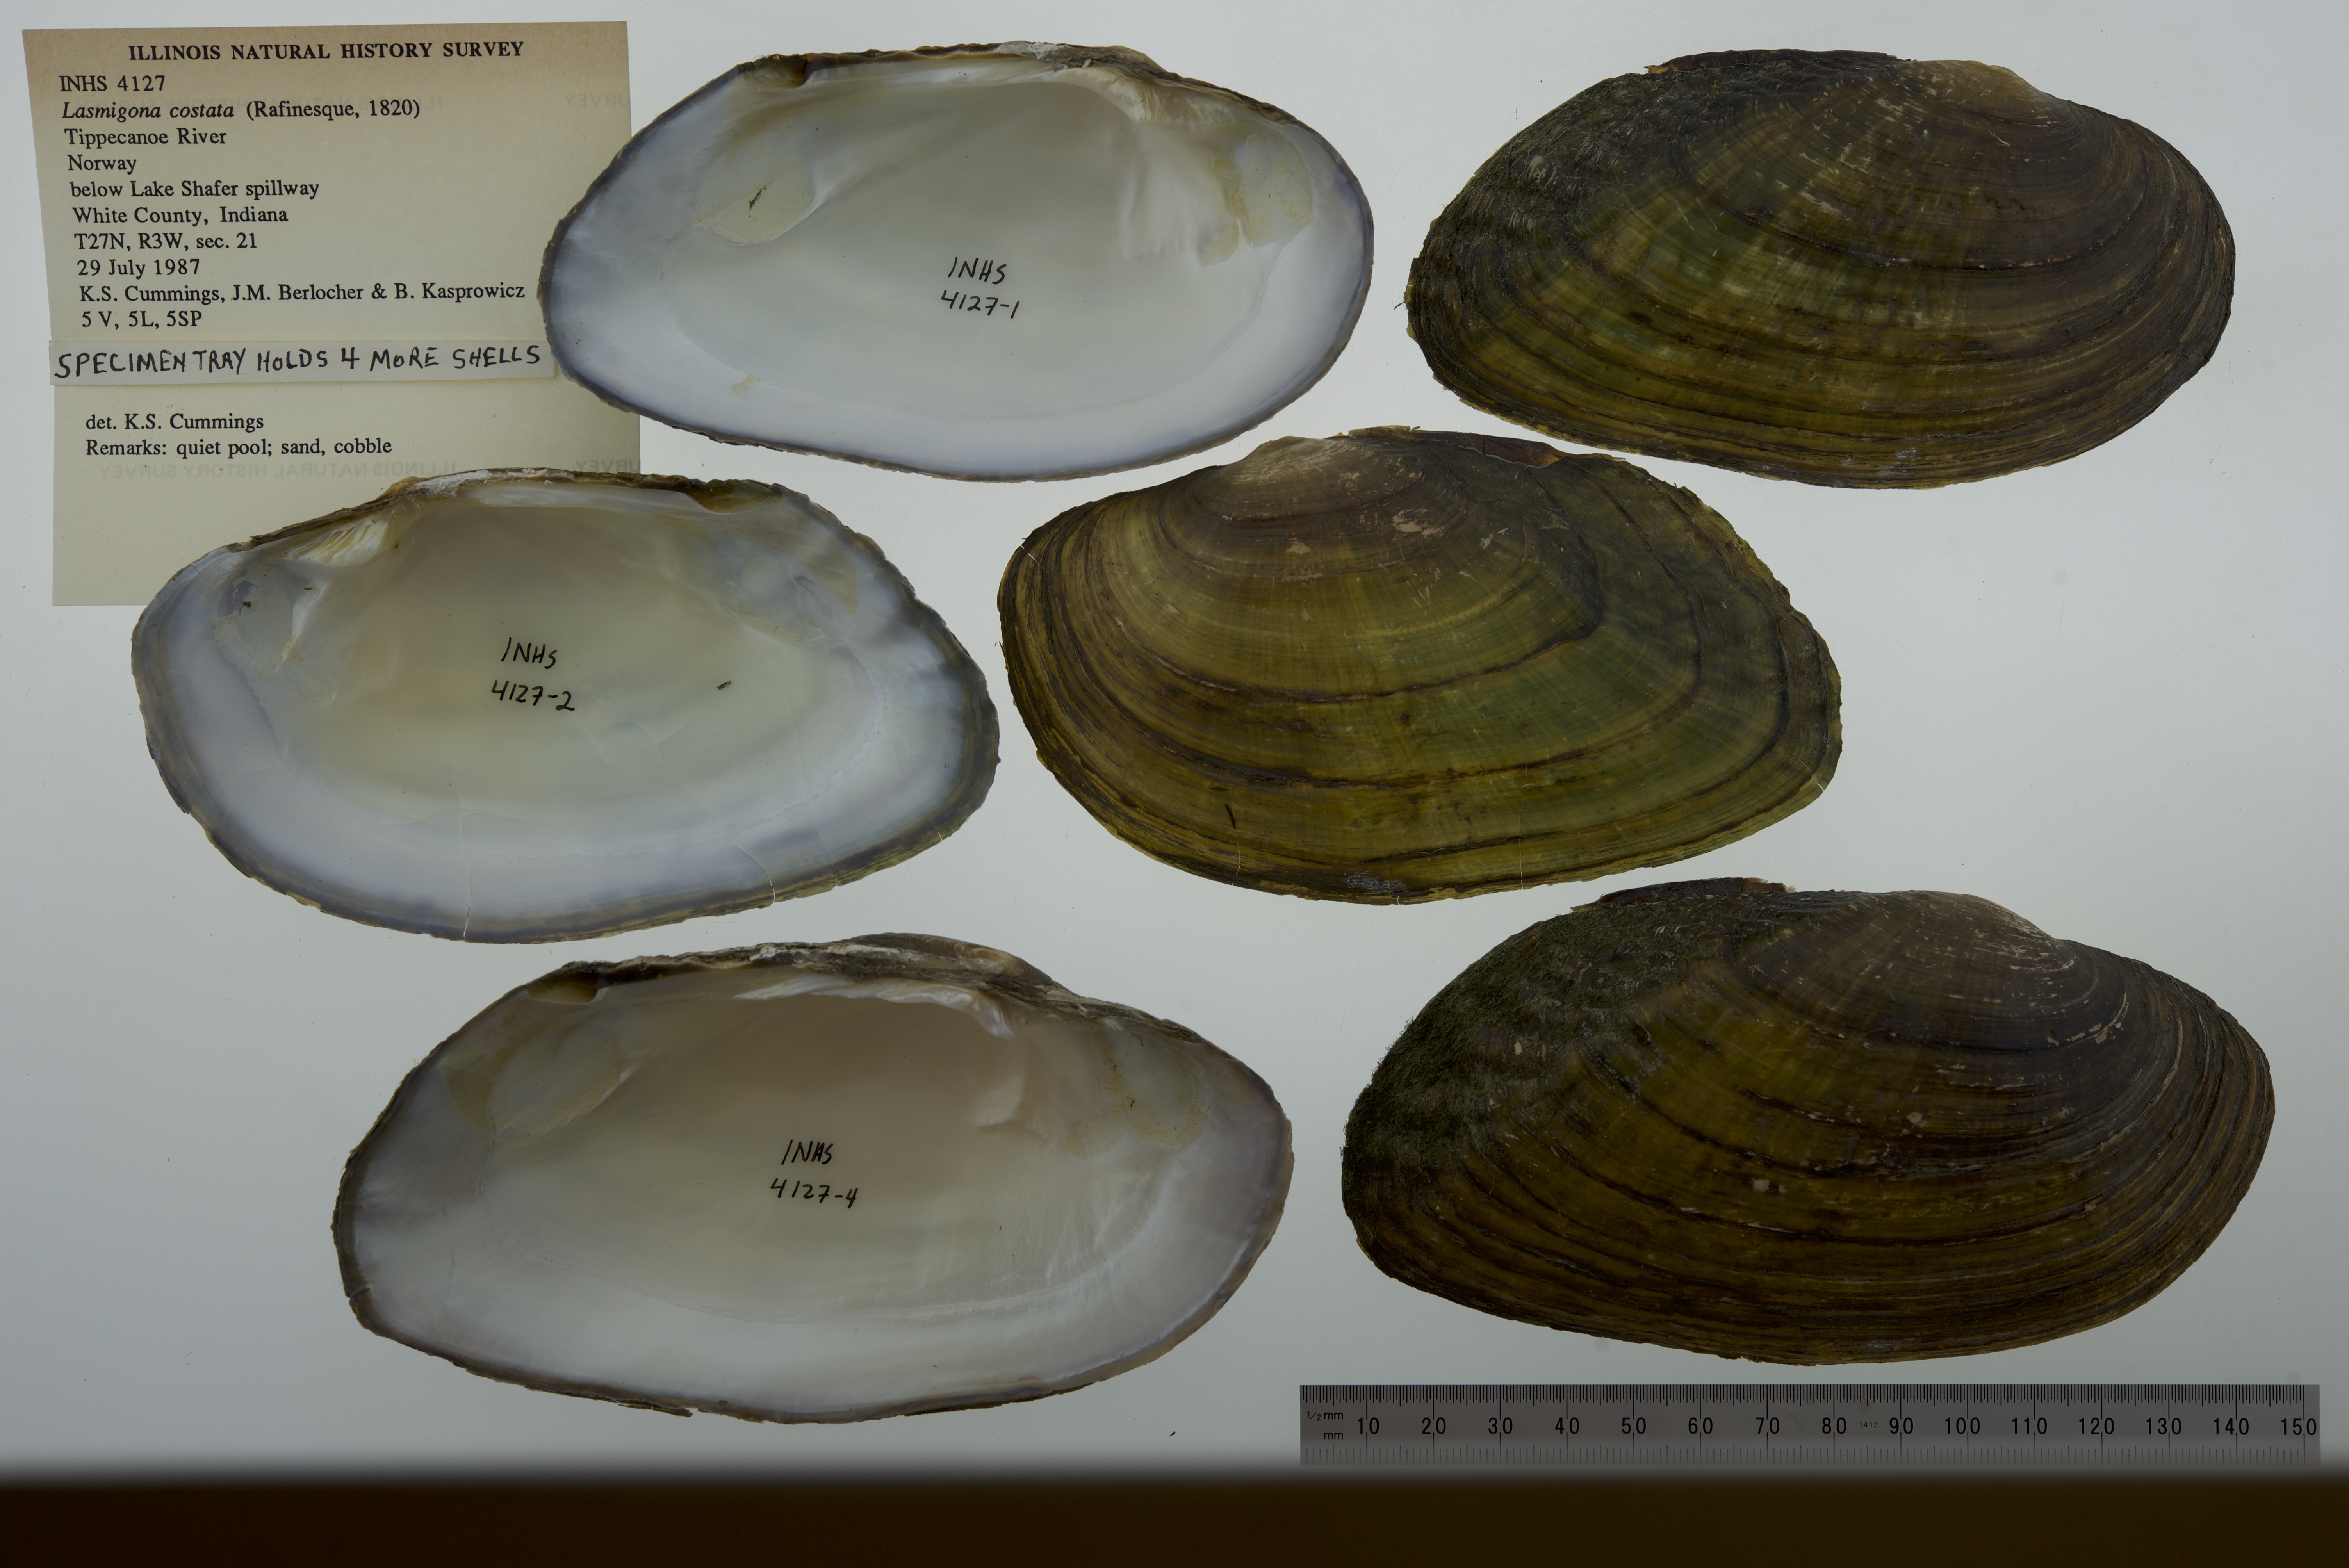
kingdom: Animalia
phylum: Mollusca
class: Bivalvia
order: Unionida
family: Unionidae
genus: Lasmigona
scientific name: Lasmigona costata
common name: Flutedshell
